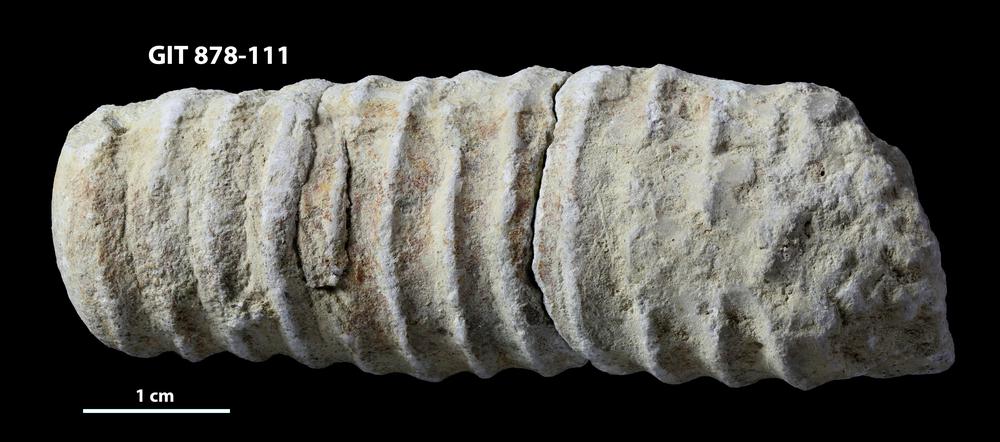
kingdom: Animalia
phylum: Mollusca
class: Cephalopoda
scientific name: Cephalopoda
